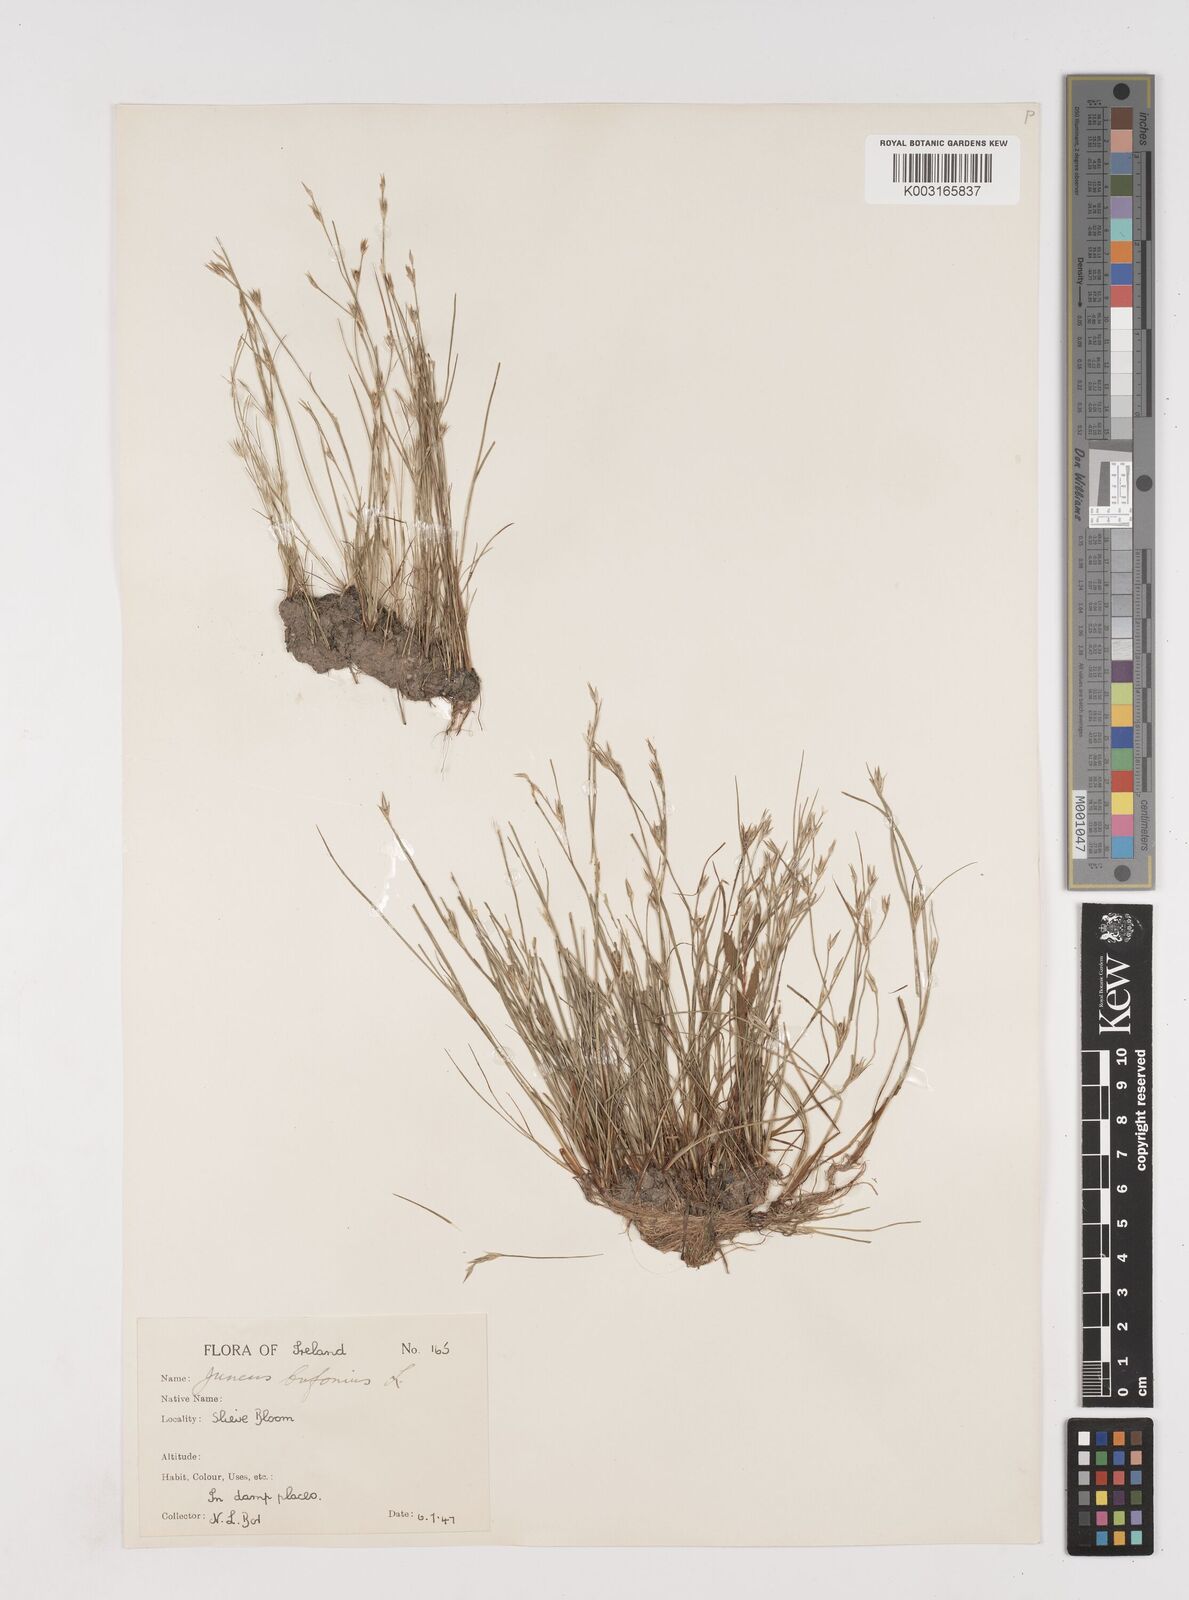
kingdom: Plantae
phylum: Tracheophyta
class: Liliopsida
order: Poales
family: Juncaceae
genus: Juncus
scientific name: Juncus bufonius
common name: Toad rush
